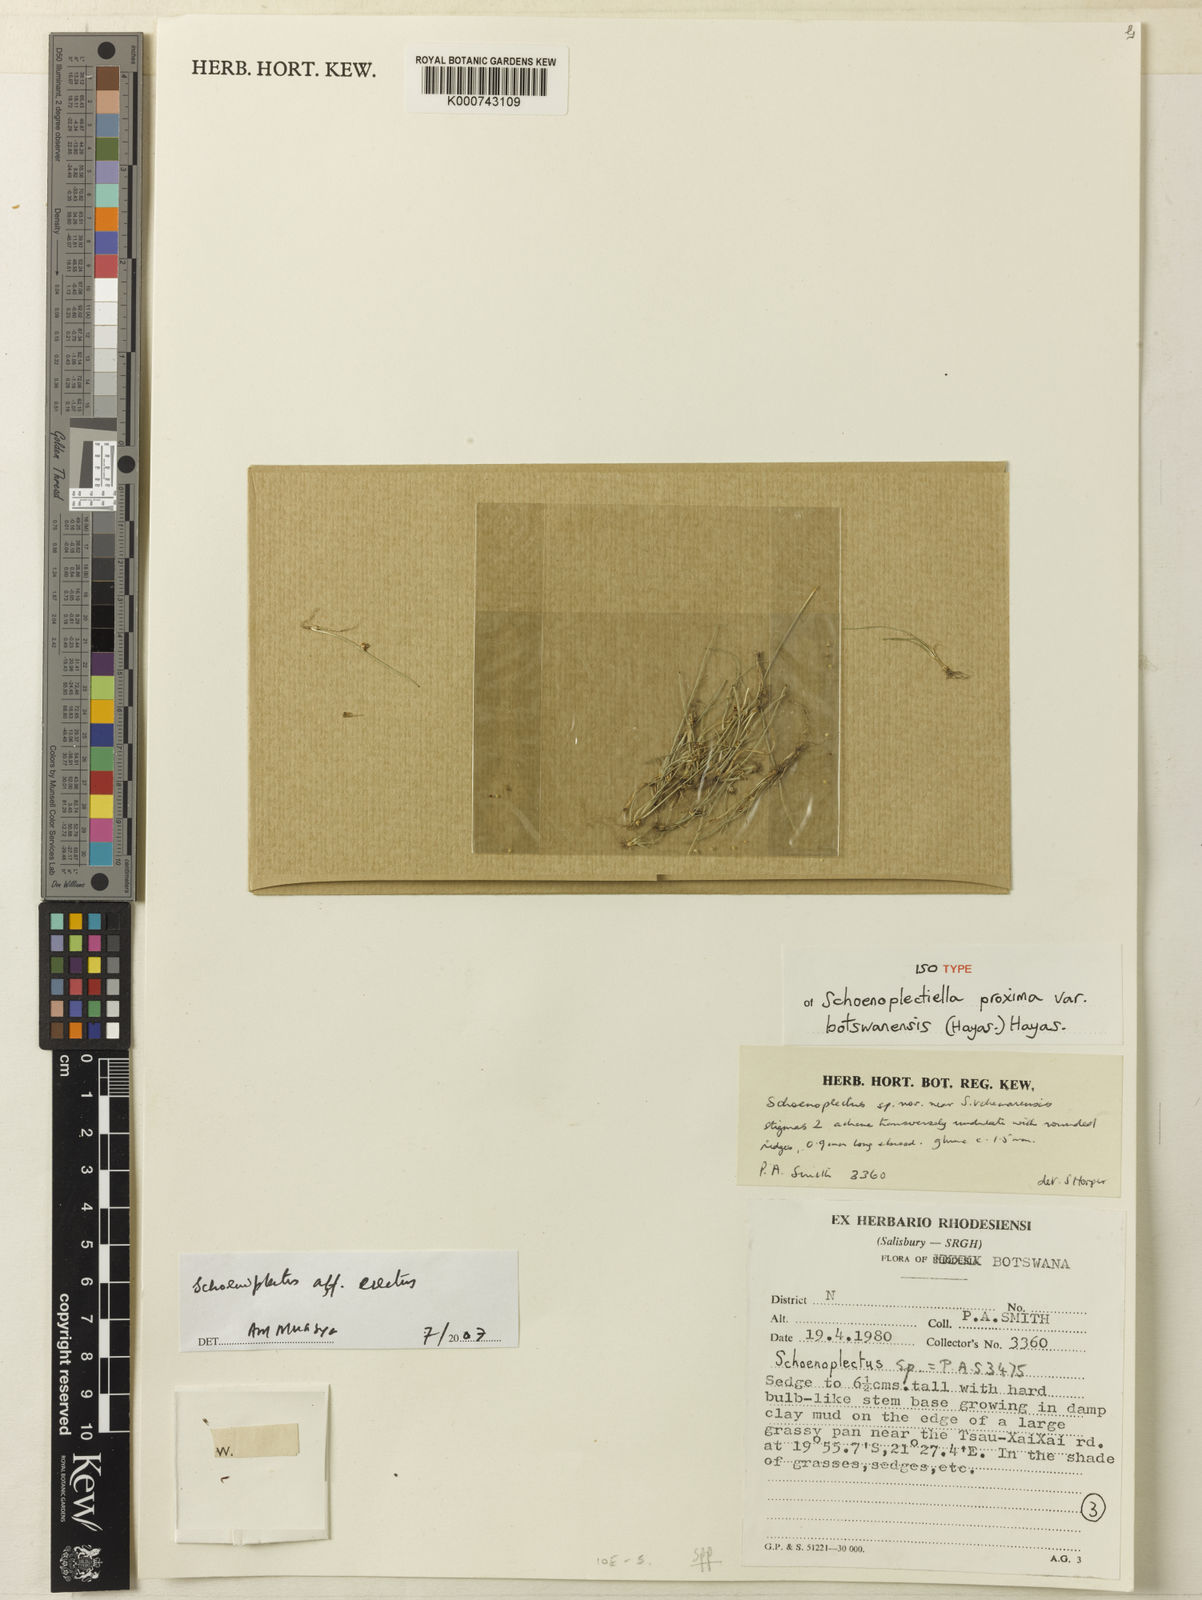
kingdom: Plantae
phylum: Tracheophyta
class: Liliopsida
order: Poales
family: Cyperaceae
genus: Schoenoplectiella
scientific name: Schoenoplectiella proxima
